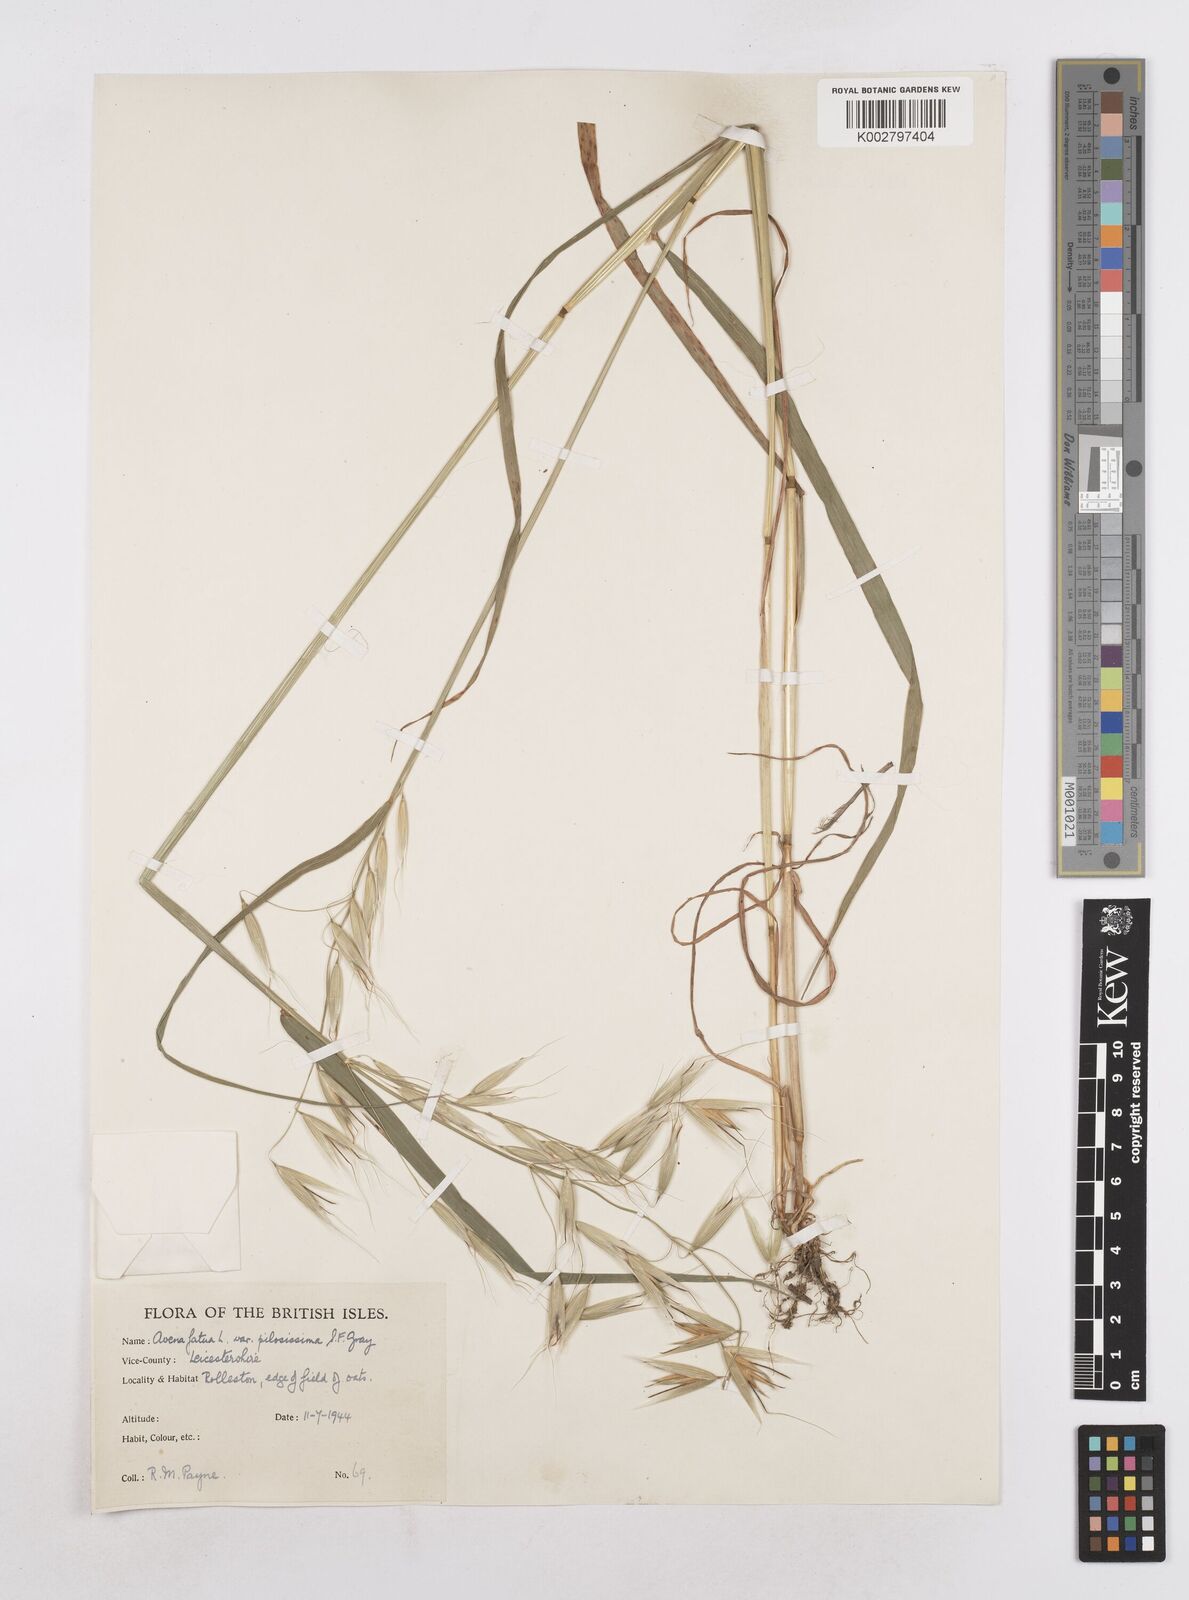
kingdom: Plantae
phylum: Tracheophyta
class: Liliopsida
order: Poales
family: Poaceae
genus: Avena
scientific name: Avena fatua
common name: Wild oat
